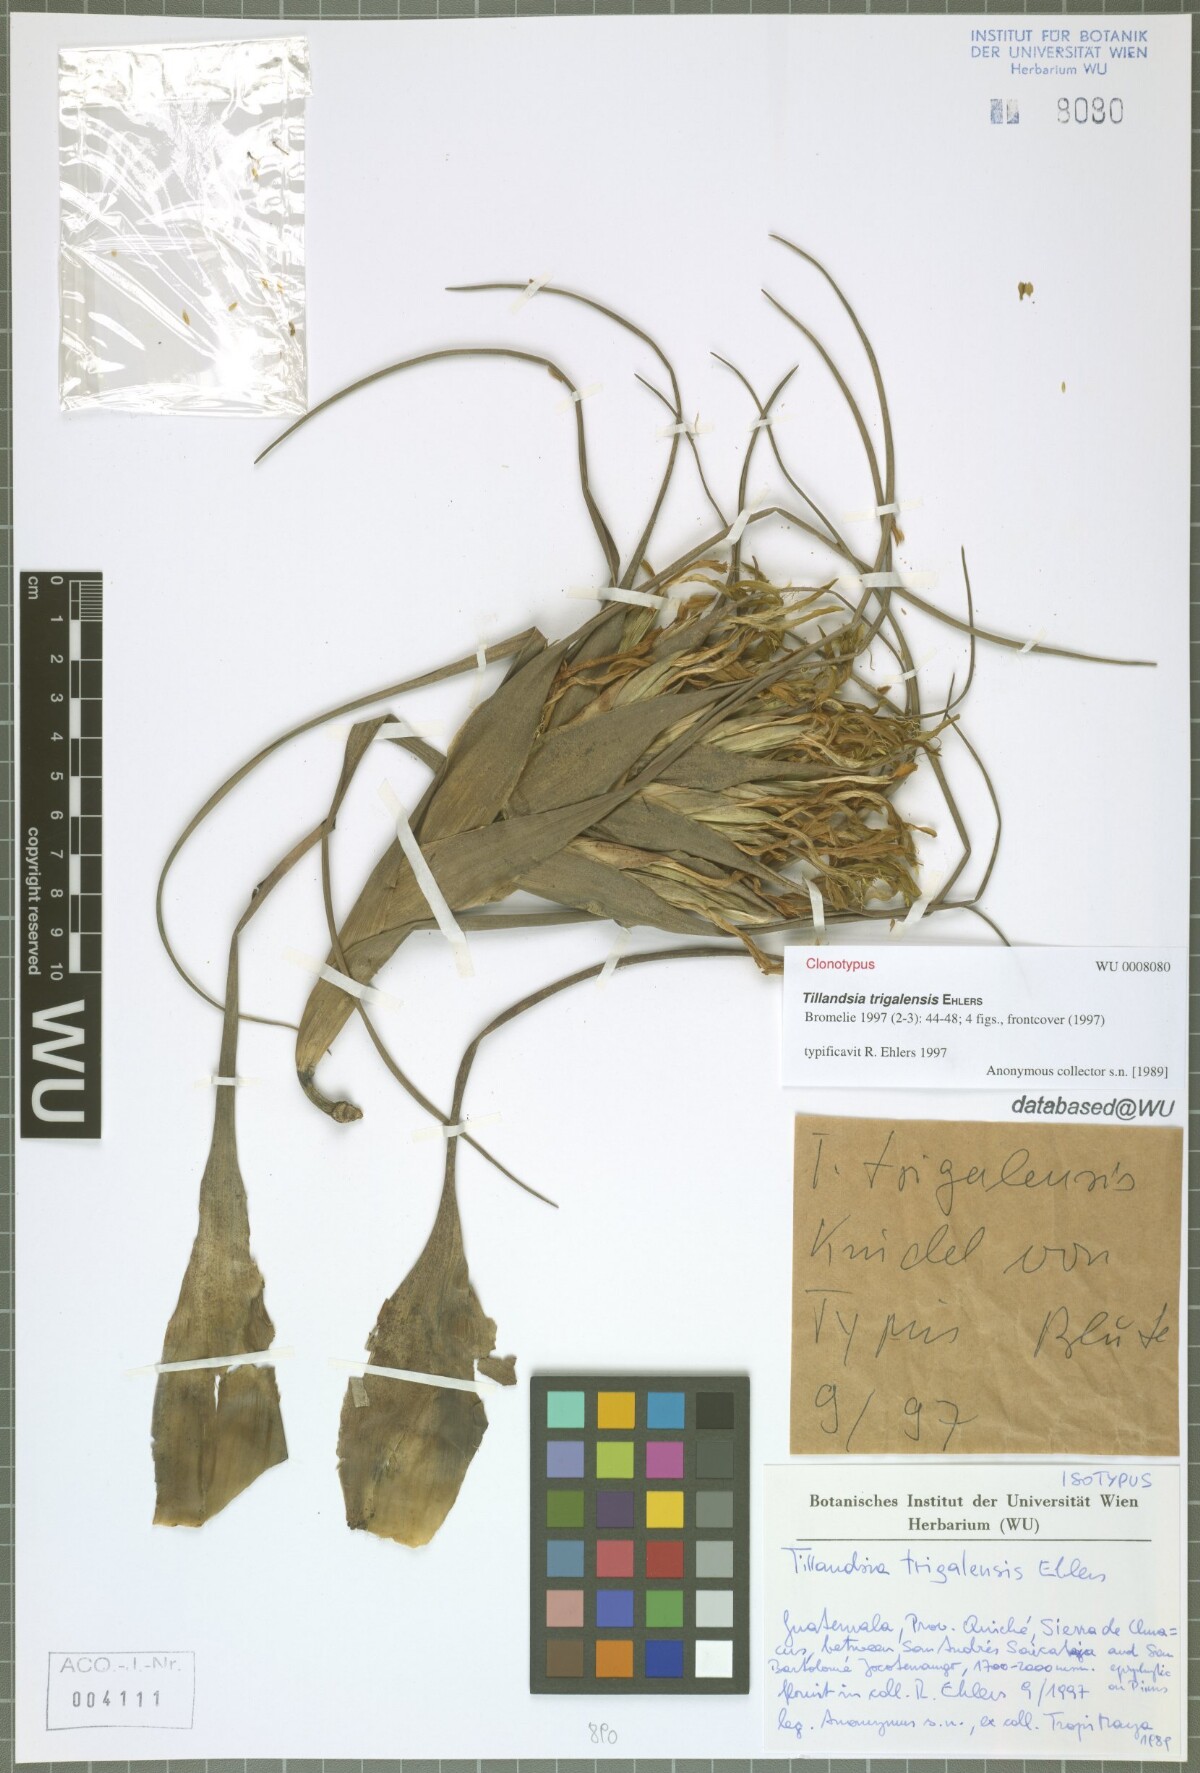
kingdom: Plantae
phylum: Tracheophyta
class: Liliopsida
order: Poales
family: Bromeliaceae
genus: Tillandsia
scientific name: Tillandsia trigalensis
